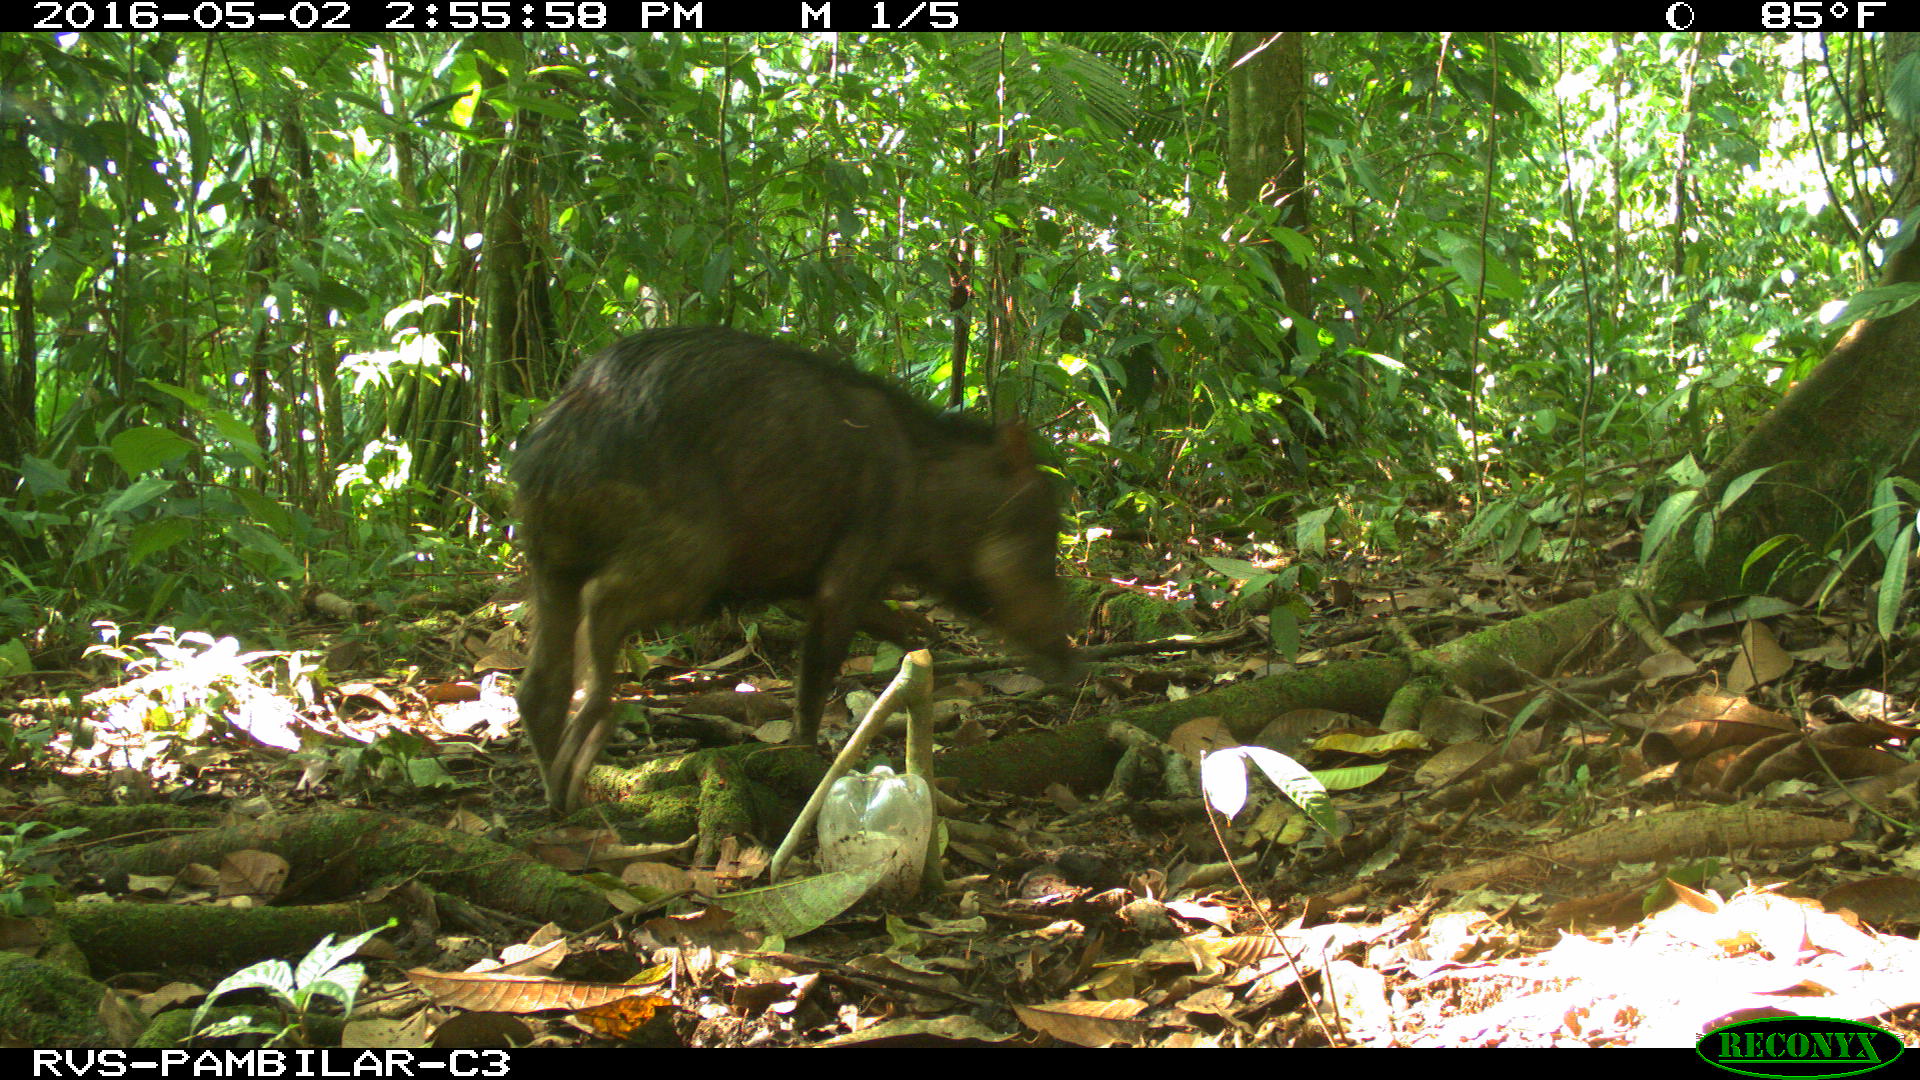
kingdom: Animalia
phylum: Chordata
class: Mammalia
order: Artiodactyla
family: Tayassuidae
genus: Tayassu
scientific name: Tayassu pecari
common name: White-lipped peccary
